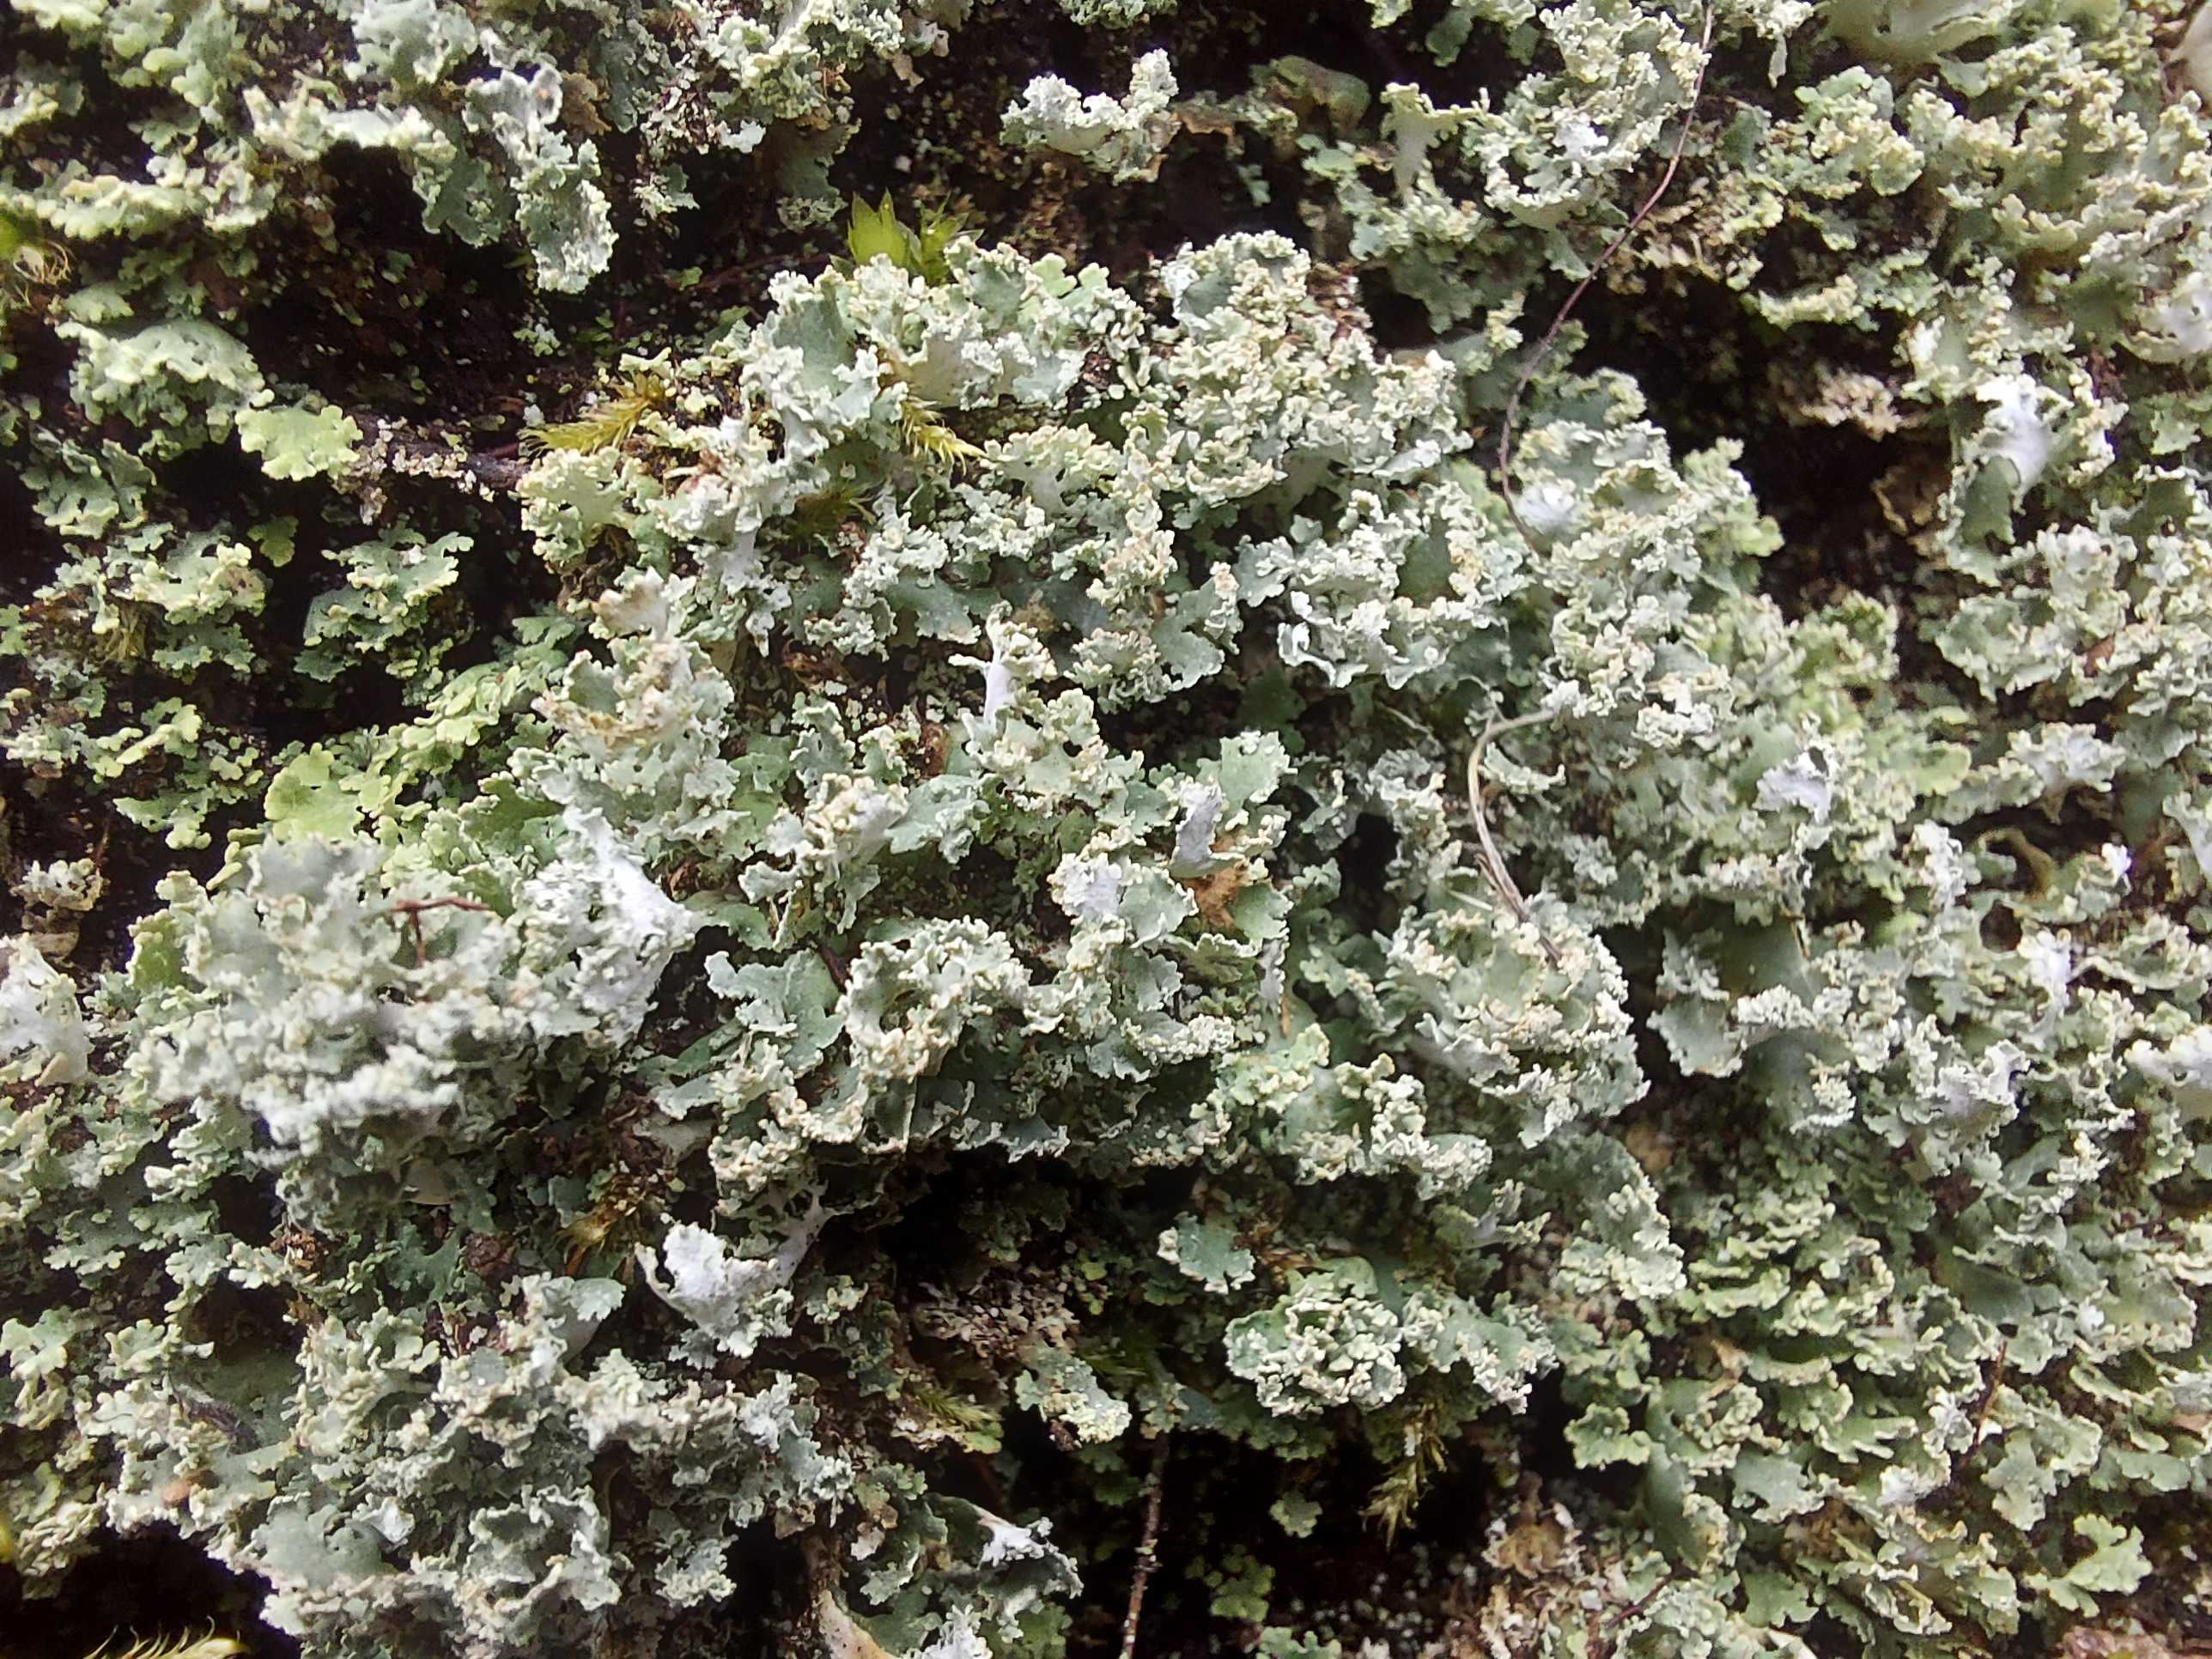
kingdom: Fungi
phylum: Ascomycota
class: Lecanoromycetes
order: Lecanorales
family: Cladoniaceae
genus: Cladonia
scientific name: Cladonia
